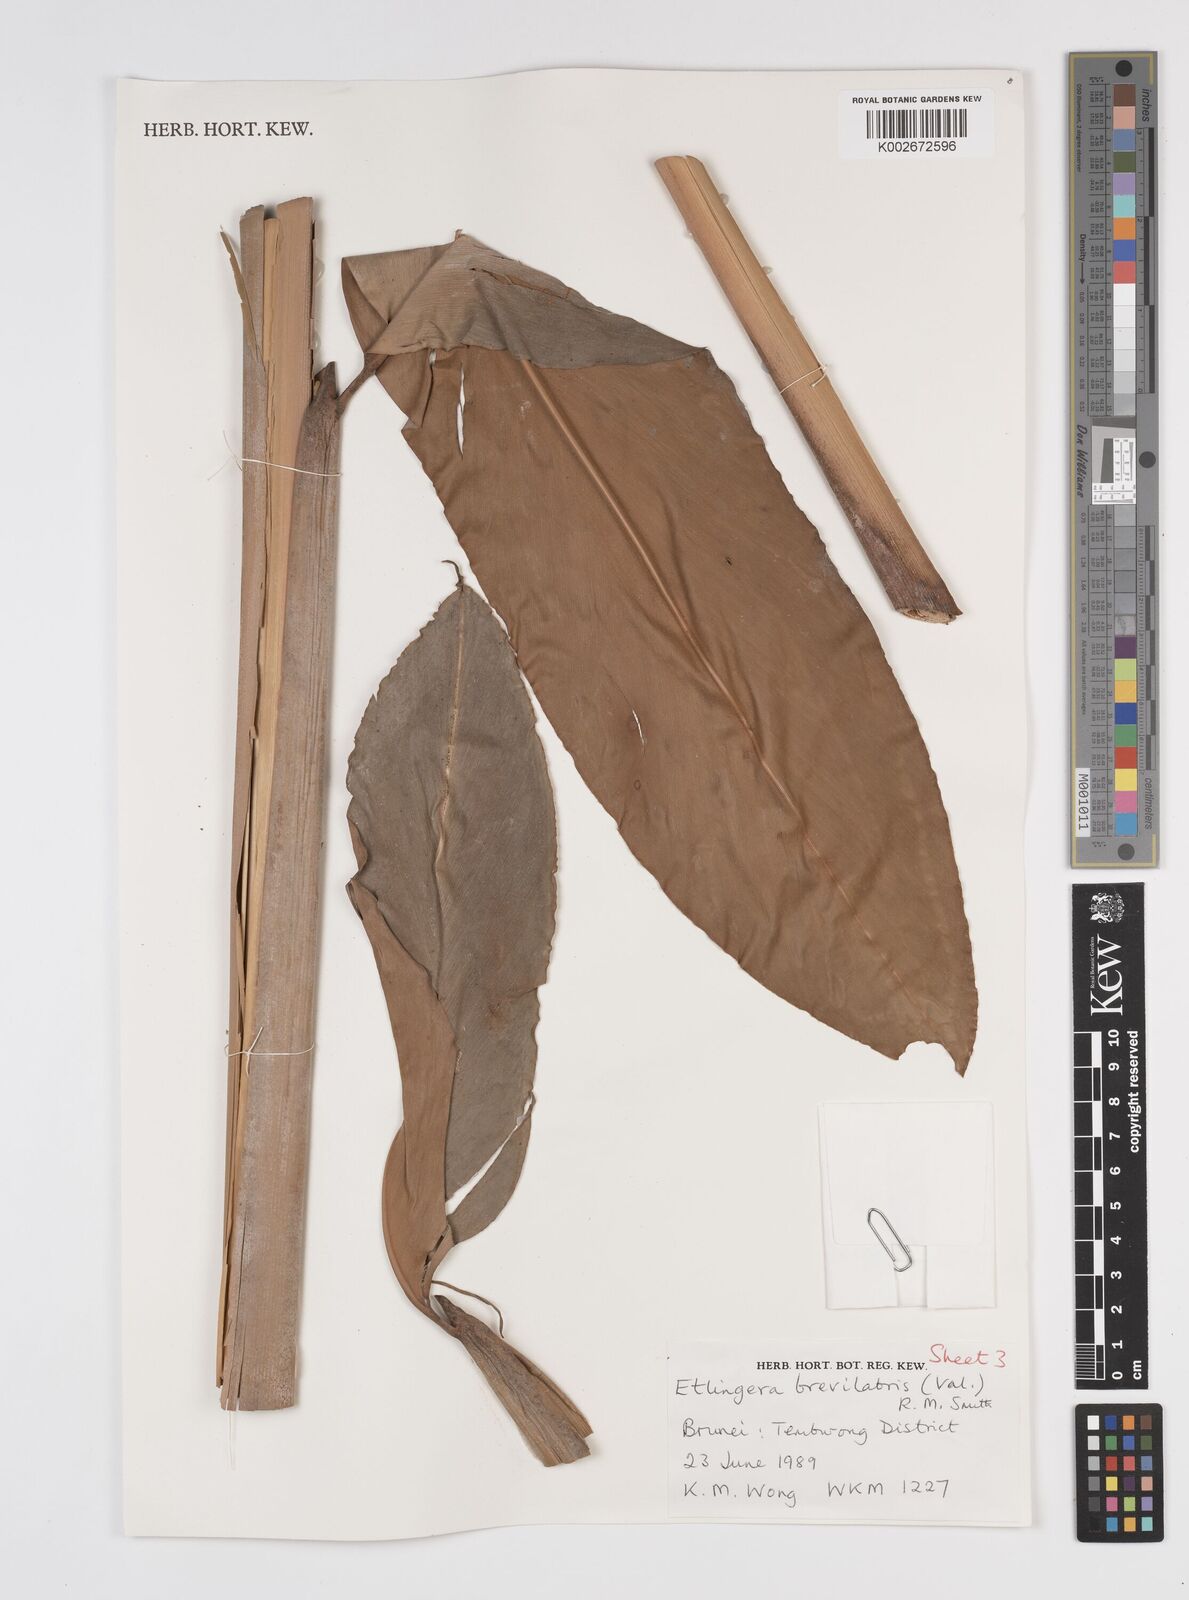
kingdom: Plantae
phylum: Tracheophyta
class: Liliopsida
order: Zingiberales
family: Zingiberaceae
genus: Etlingera
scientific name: Etlingera brevilabrum
